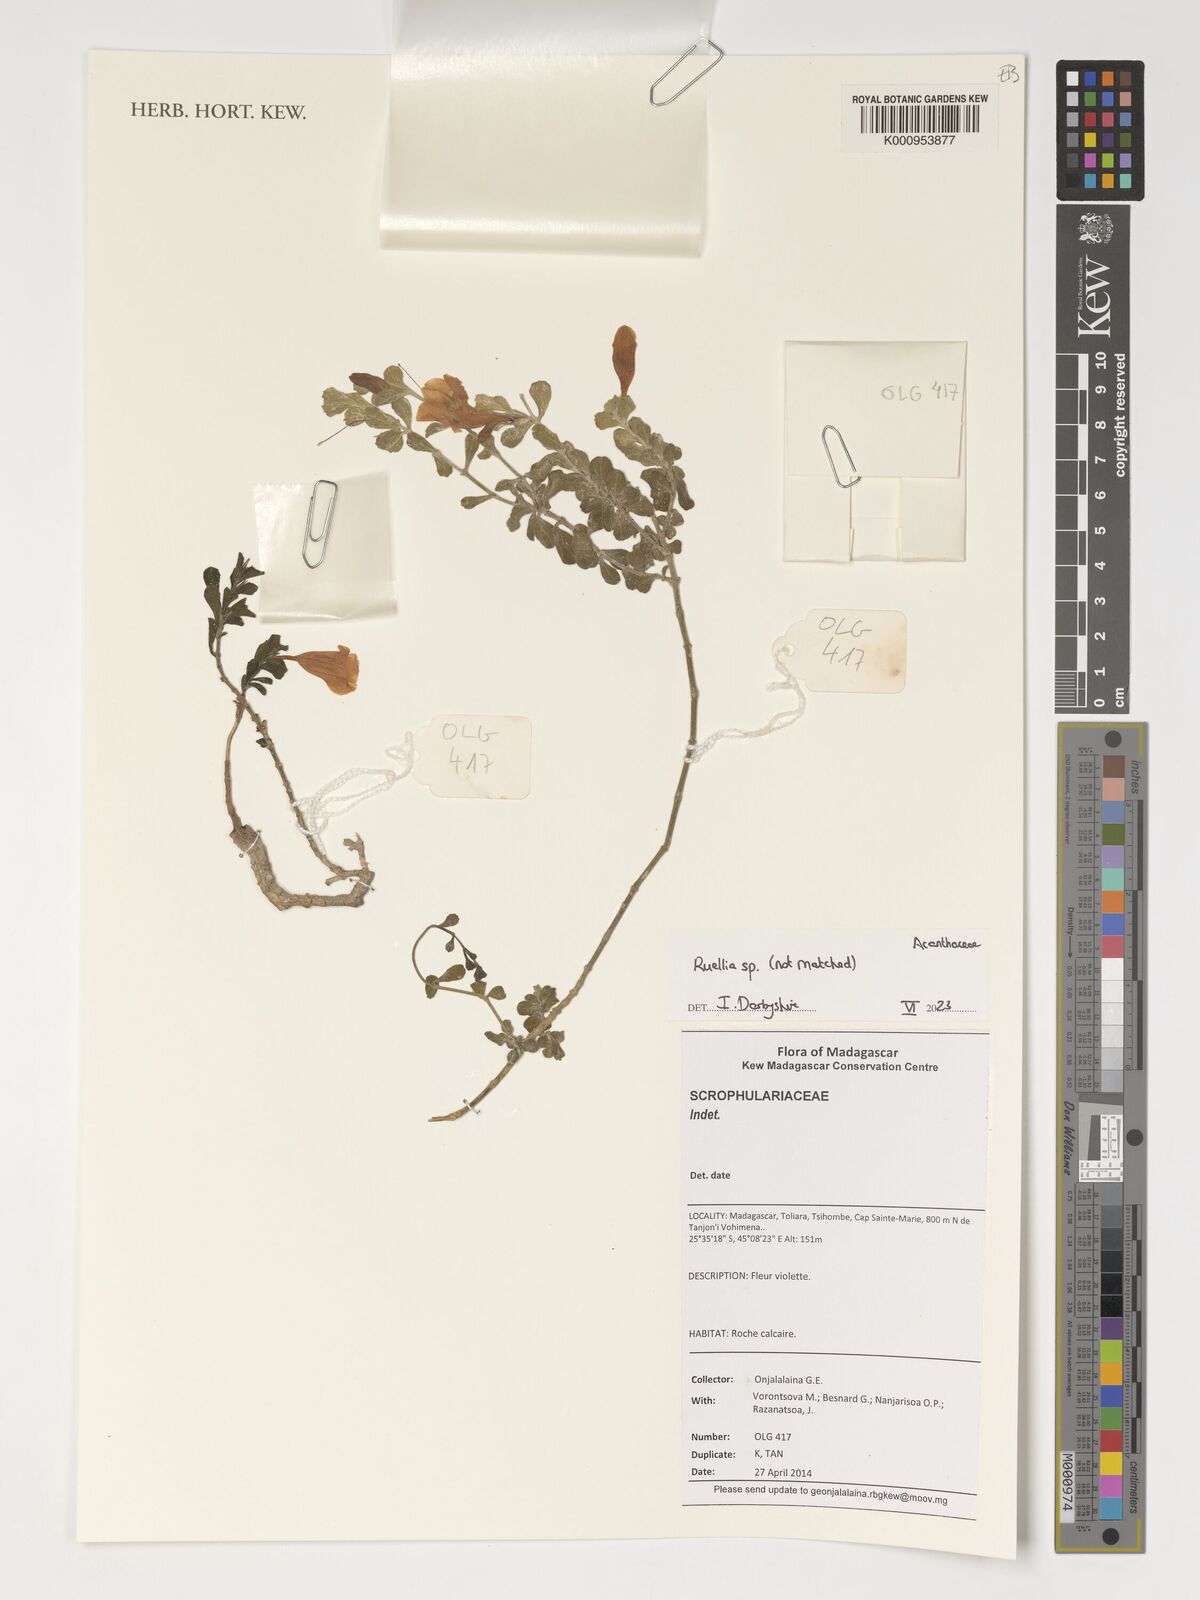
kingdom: Plantae
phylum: Tracheophyta
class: Magnoliopsida
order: Lamiales
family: Acanthaceae
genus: Ruellia
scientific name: Ruellia
